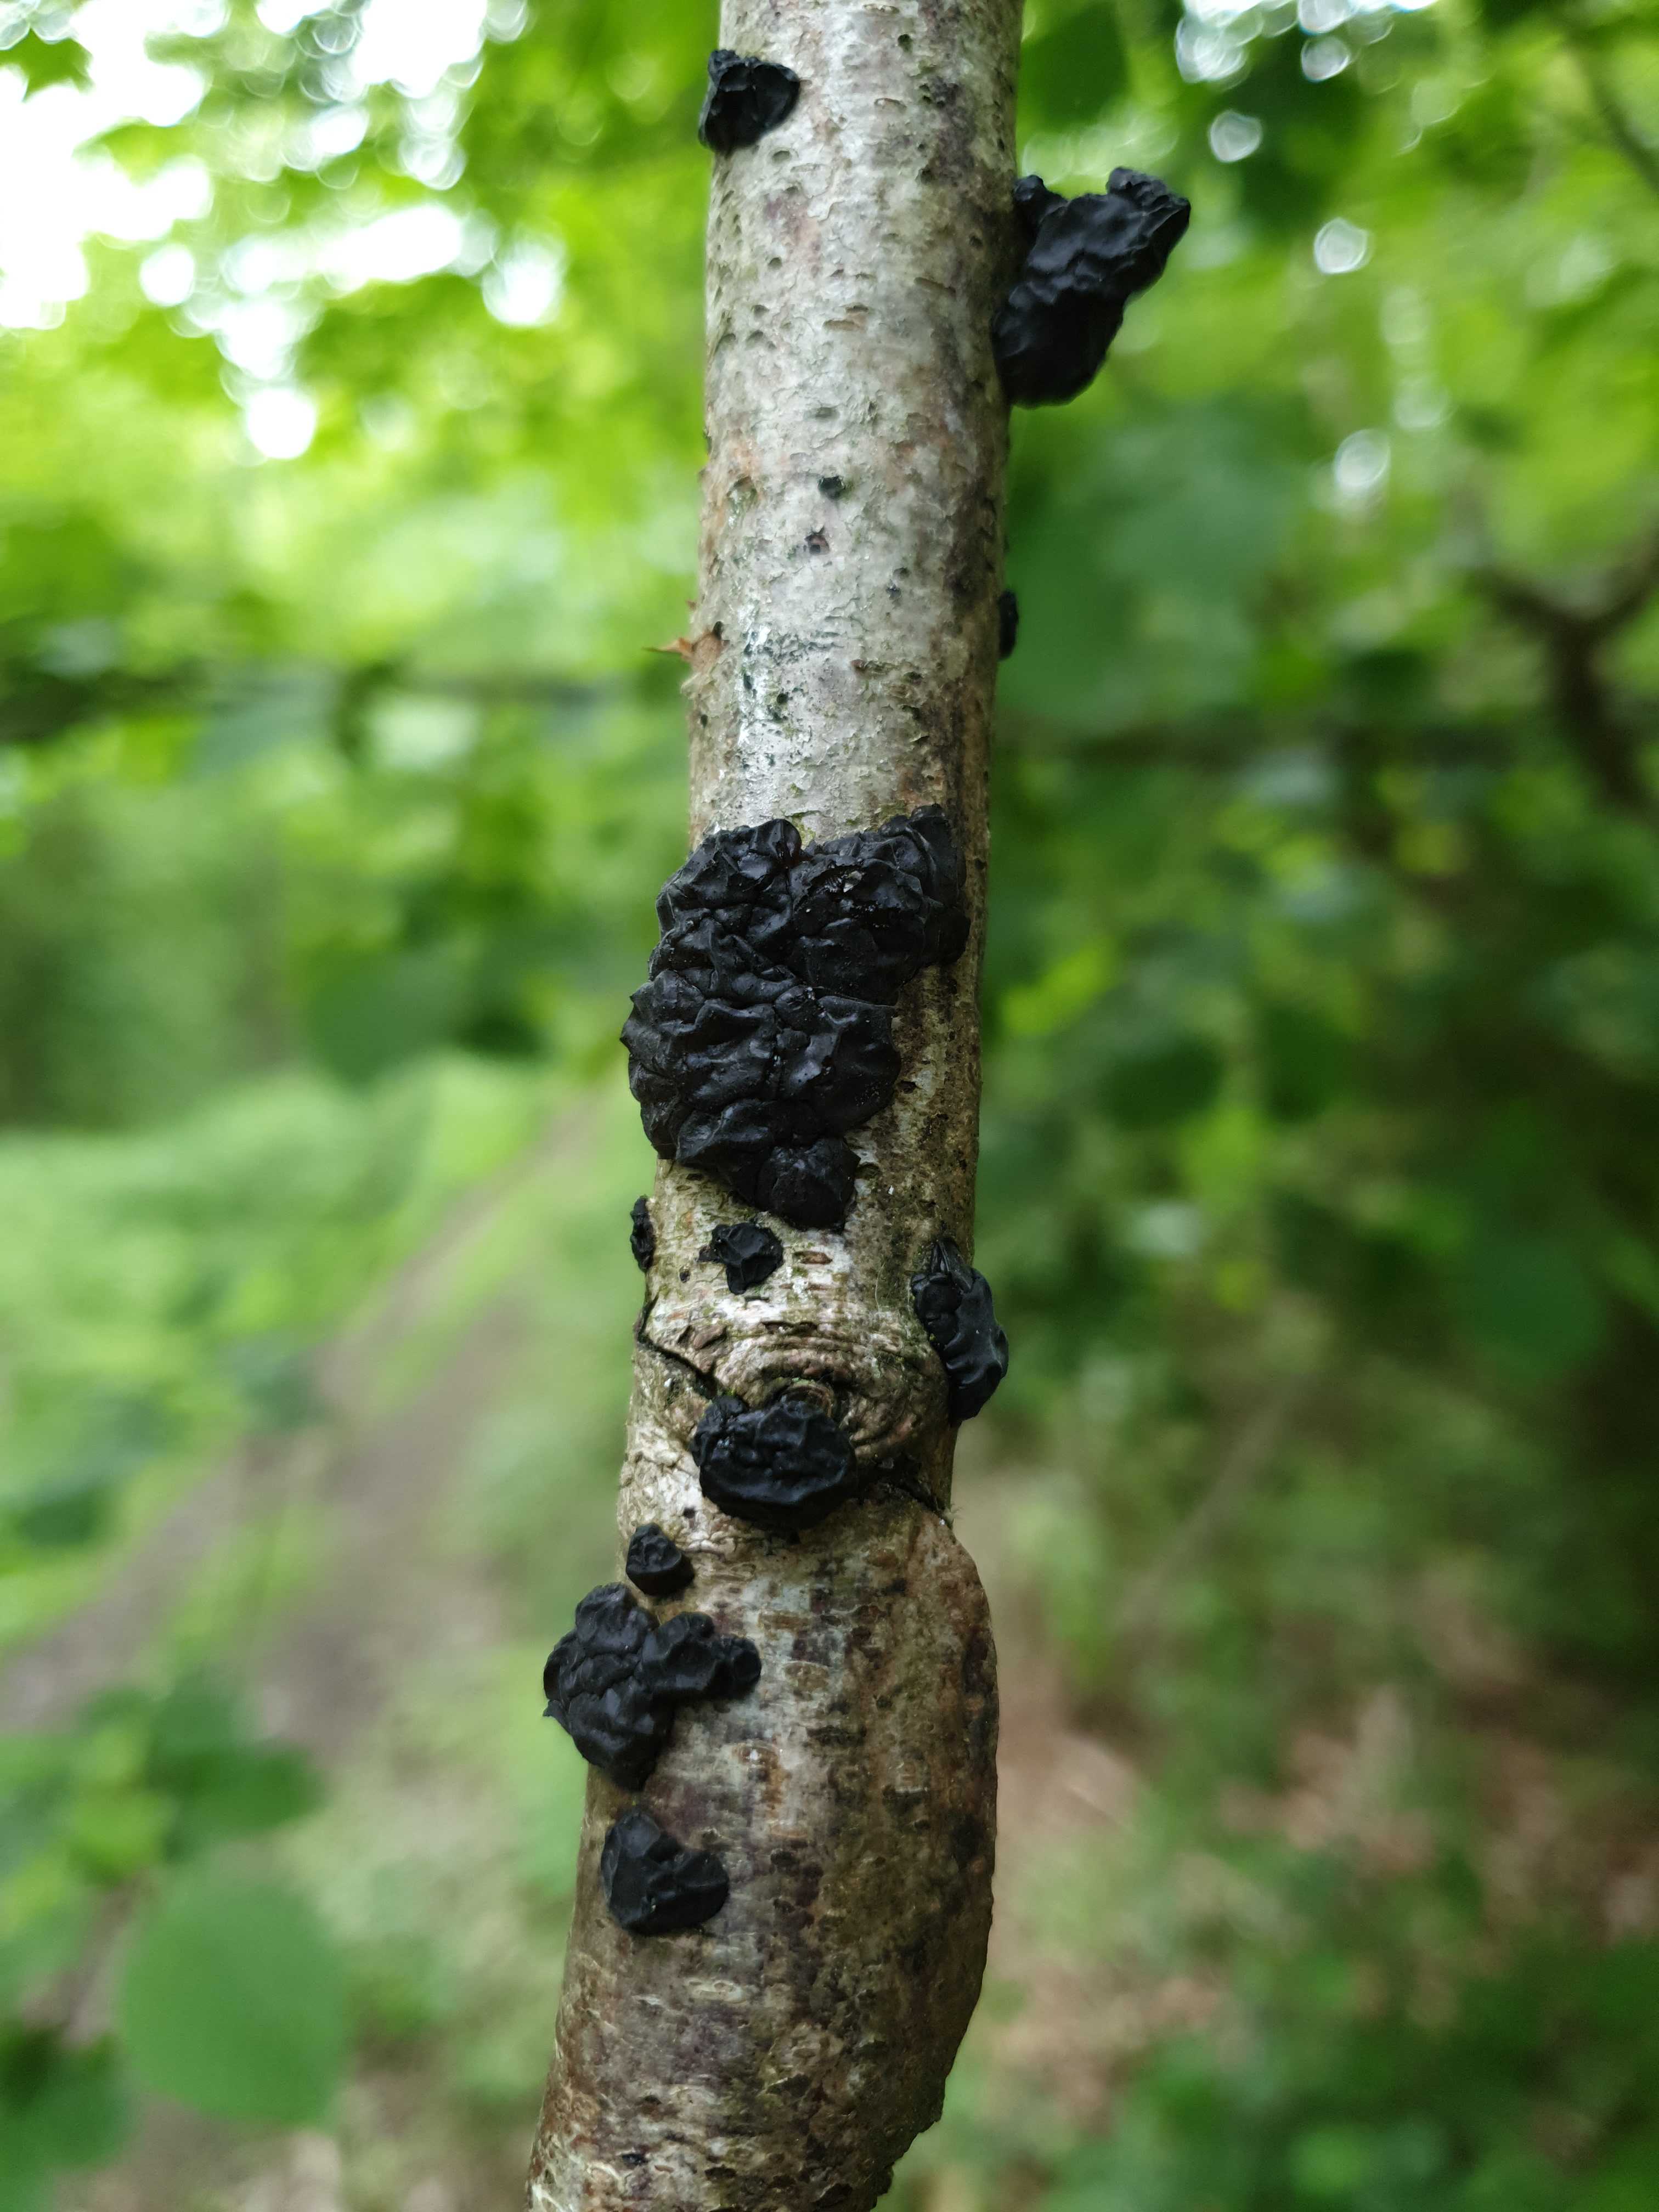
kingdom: Fungi
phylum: Basidiomycota
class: Agaricomycetes
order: Auriculariales
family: Auriculariaceae
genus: Exidia
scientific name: Exidia nigricans
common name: almindelig bævretop
